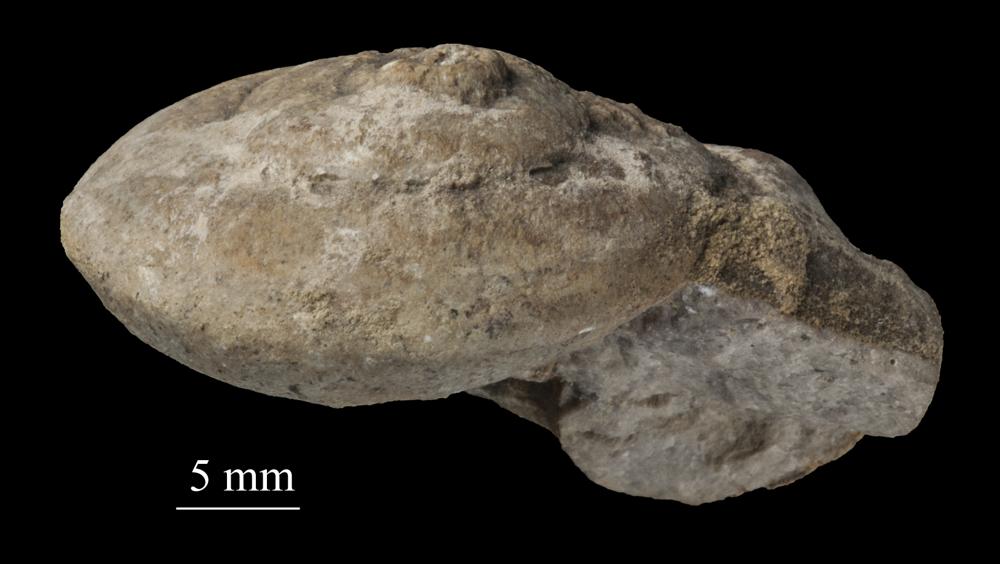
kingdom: Animalia
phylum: Mollusca
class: Gastropoda
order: Pleurotomariida
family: Eotomariidae
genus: Eotomaria
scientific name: Eotomaria Pleurotomaria notabilis
